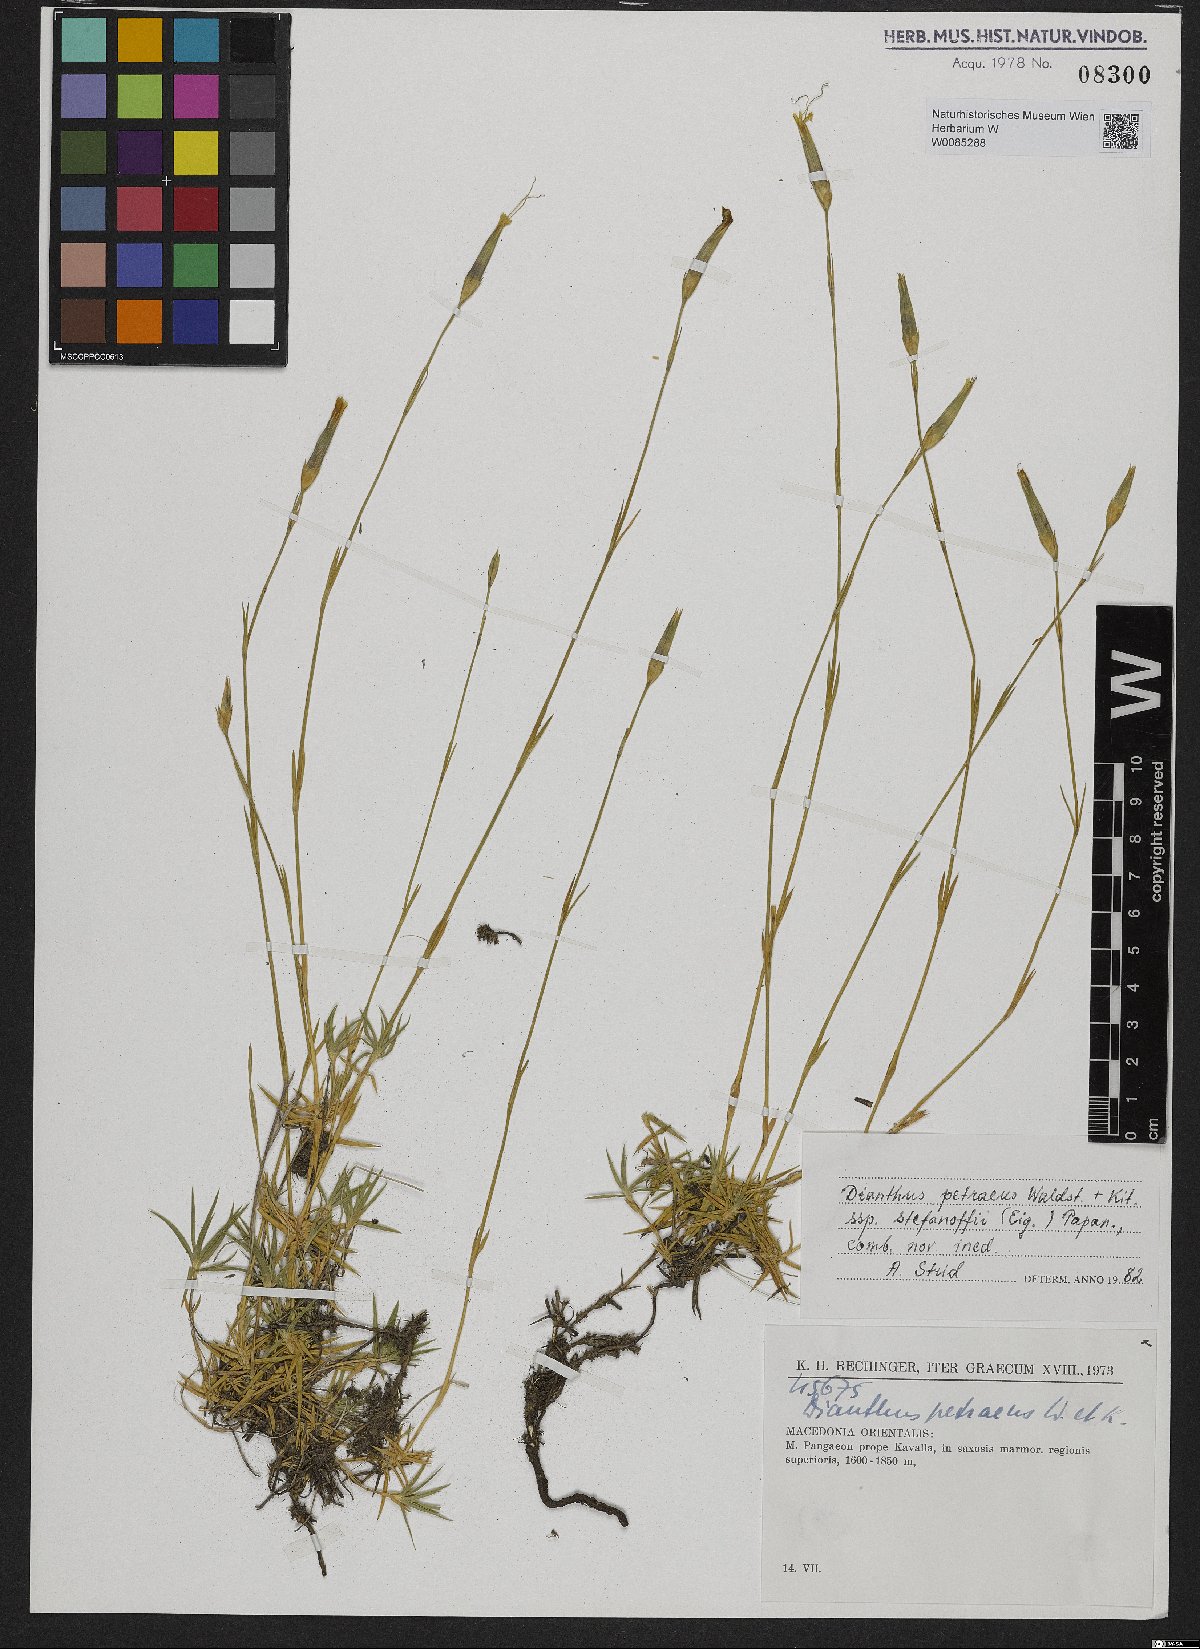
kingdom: Plantae
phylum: Tracheophyta
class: Magnoliopsida
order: Caryophyllales
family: Caryophyllaceae
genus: Dianthus
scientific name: Dianthus petraeus
